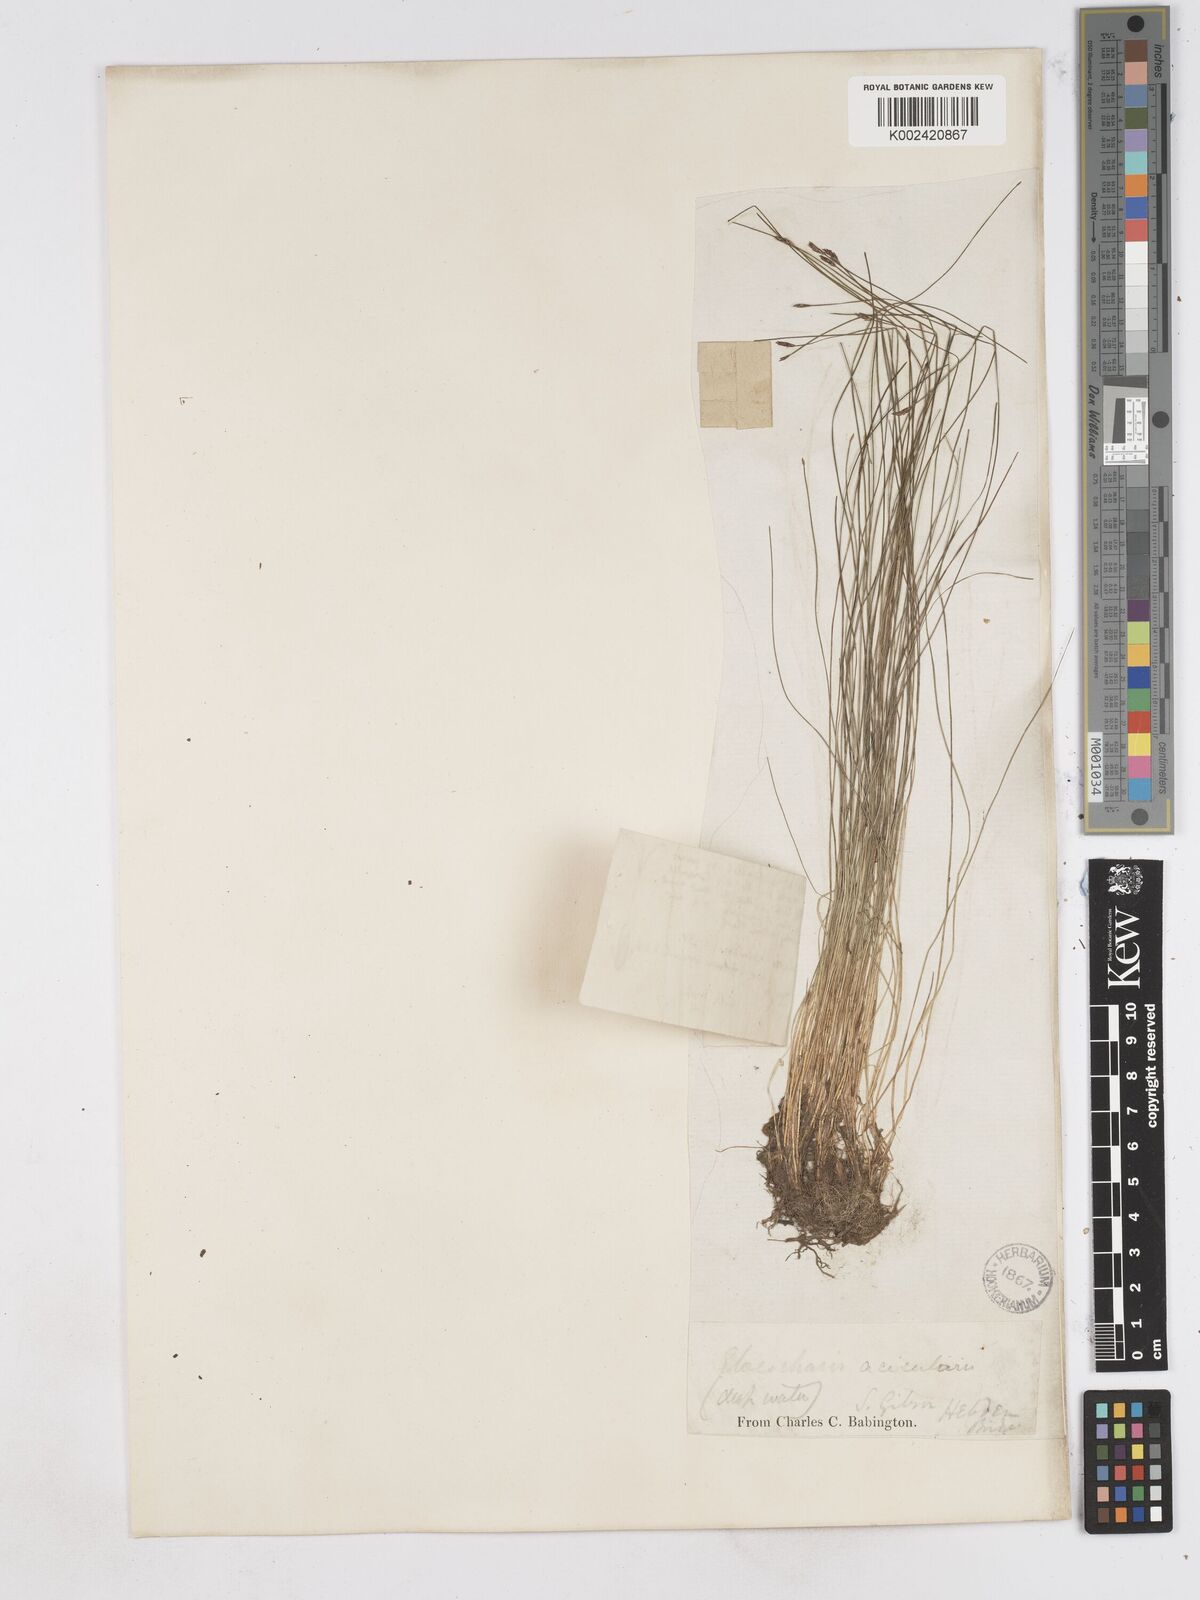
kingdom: Plantae
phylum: Tracheophyta
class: Liliopsida
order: Poales
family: Cyperaceae
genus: Eleocharis
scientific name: Eleocharis acicularis
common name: Needle spike-rush
